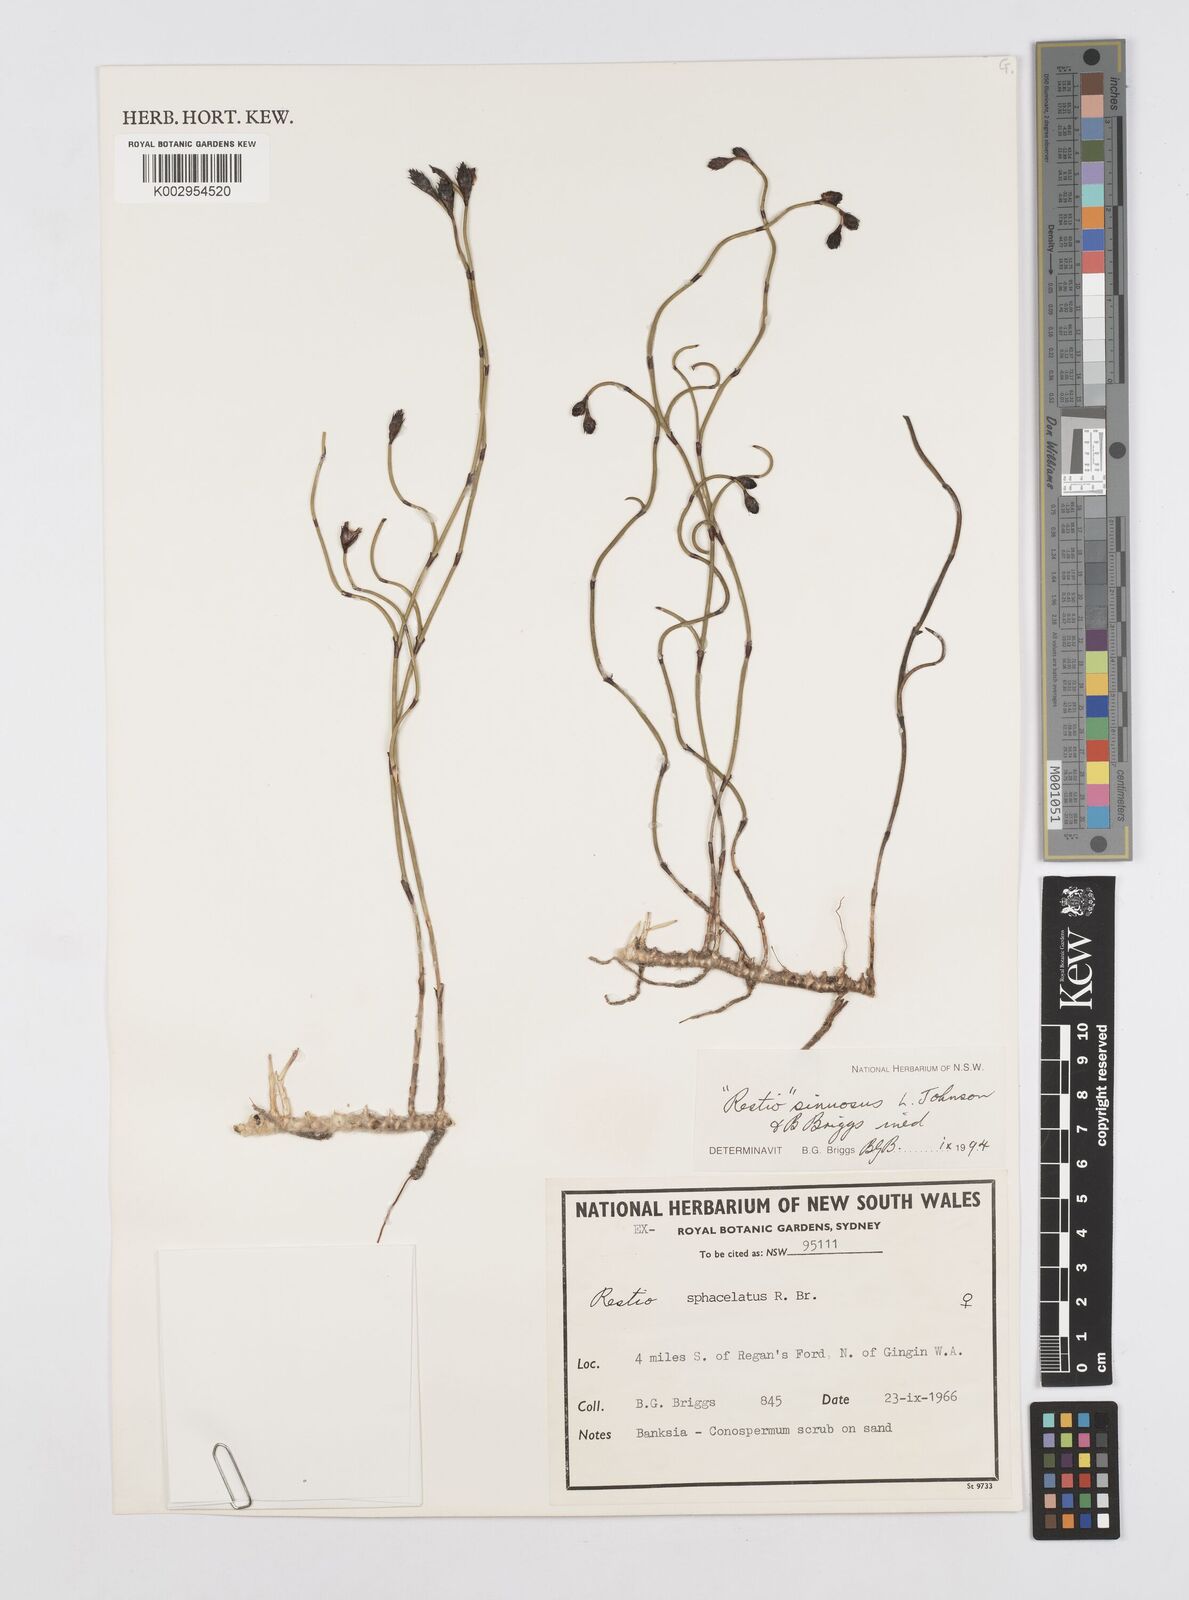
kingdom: Plantae
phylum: Tracheophyta
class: Liliopsida
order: Poales
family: Restionaceae
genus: Chordifex
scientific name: Chordifex sinuosus
